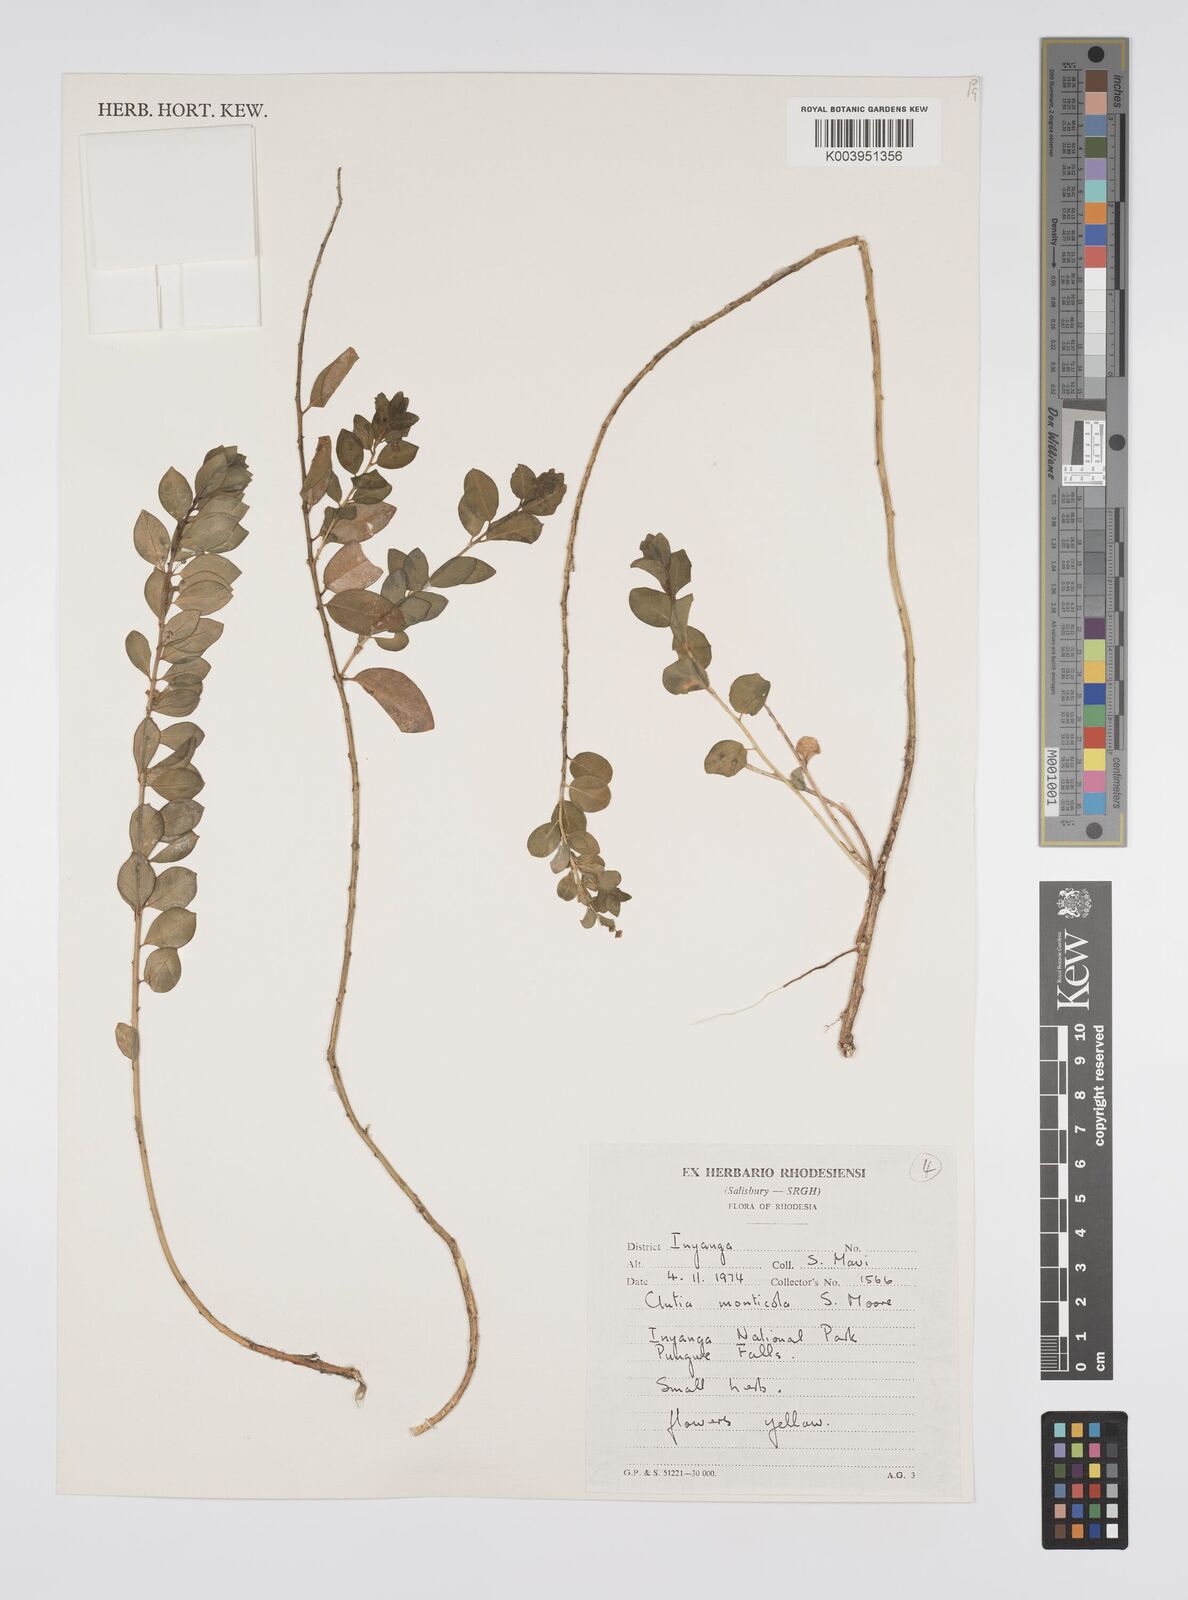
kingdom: Plantae
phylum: Tracheophyta
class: Magnoliopsida
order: Malpighiales
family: Peraceae
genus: Clutia
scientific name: Clutia monticola
